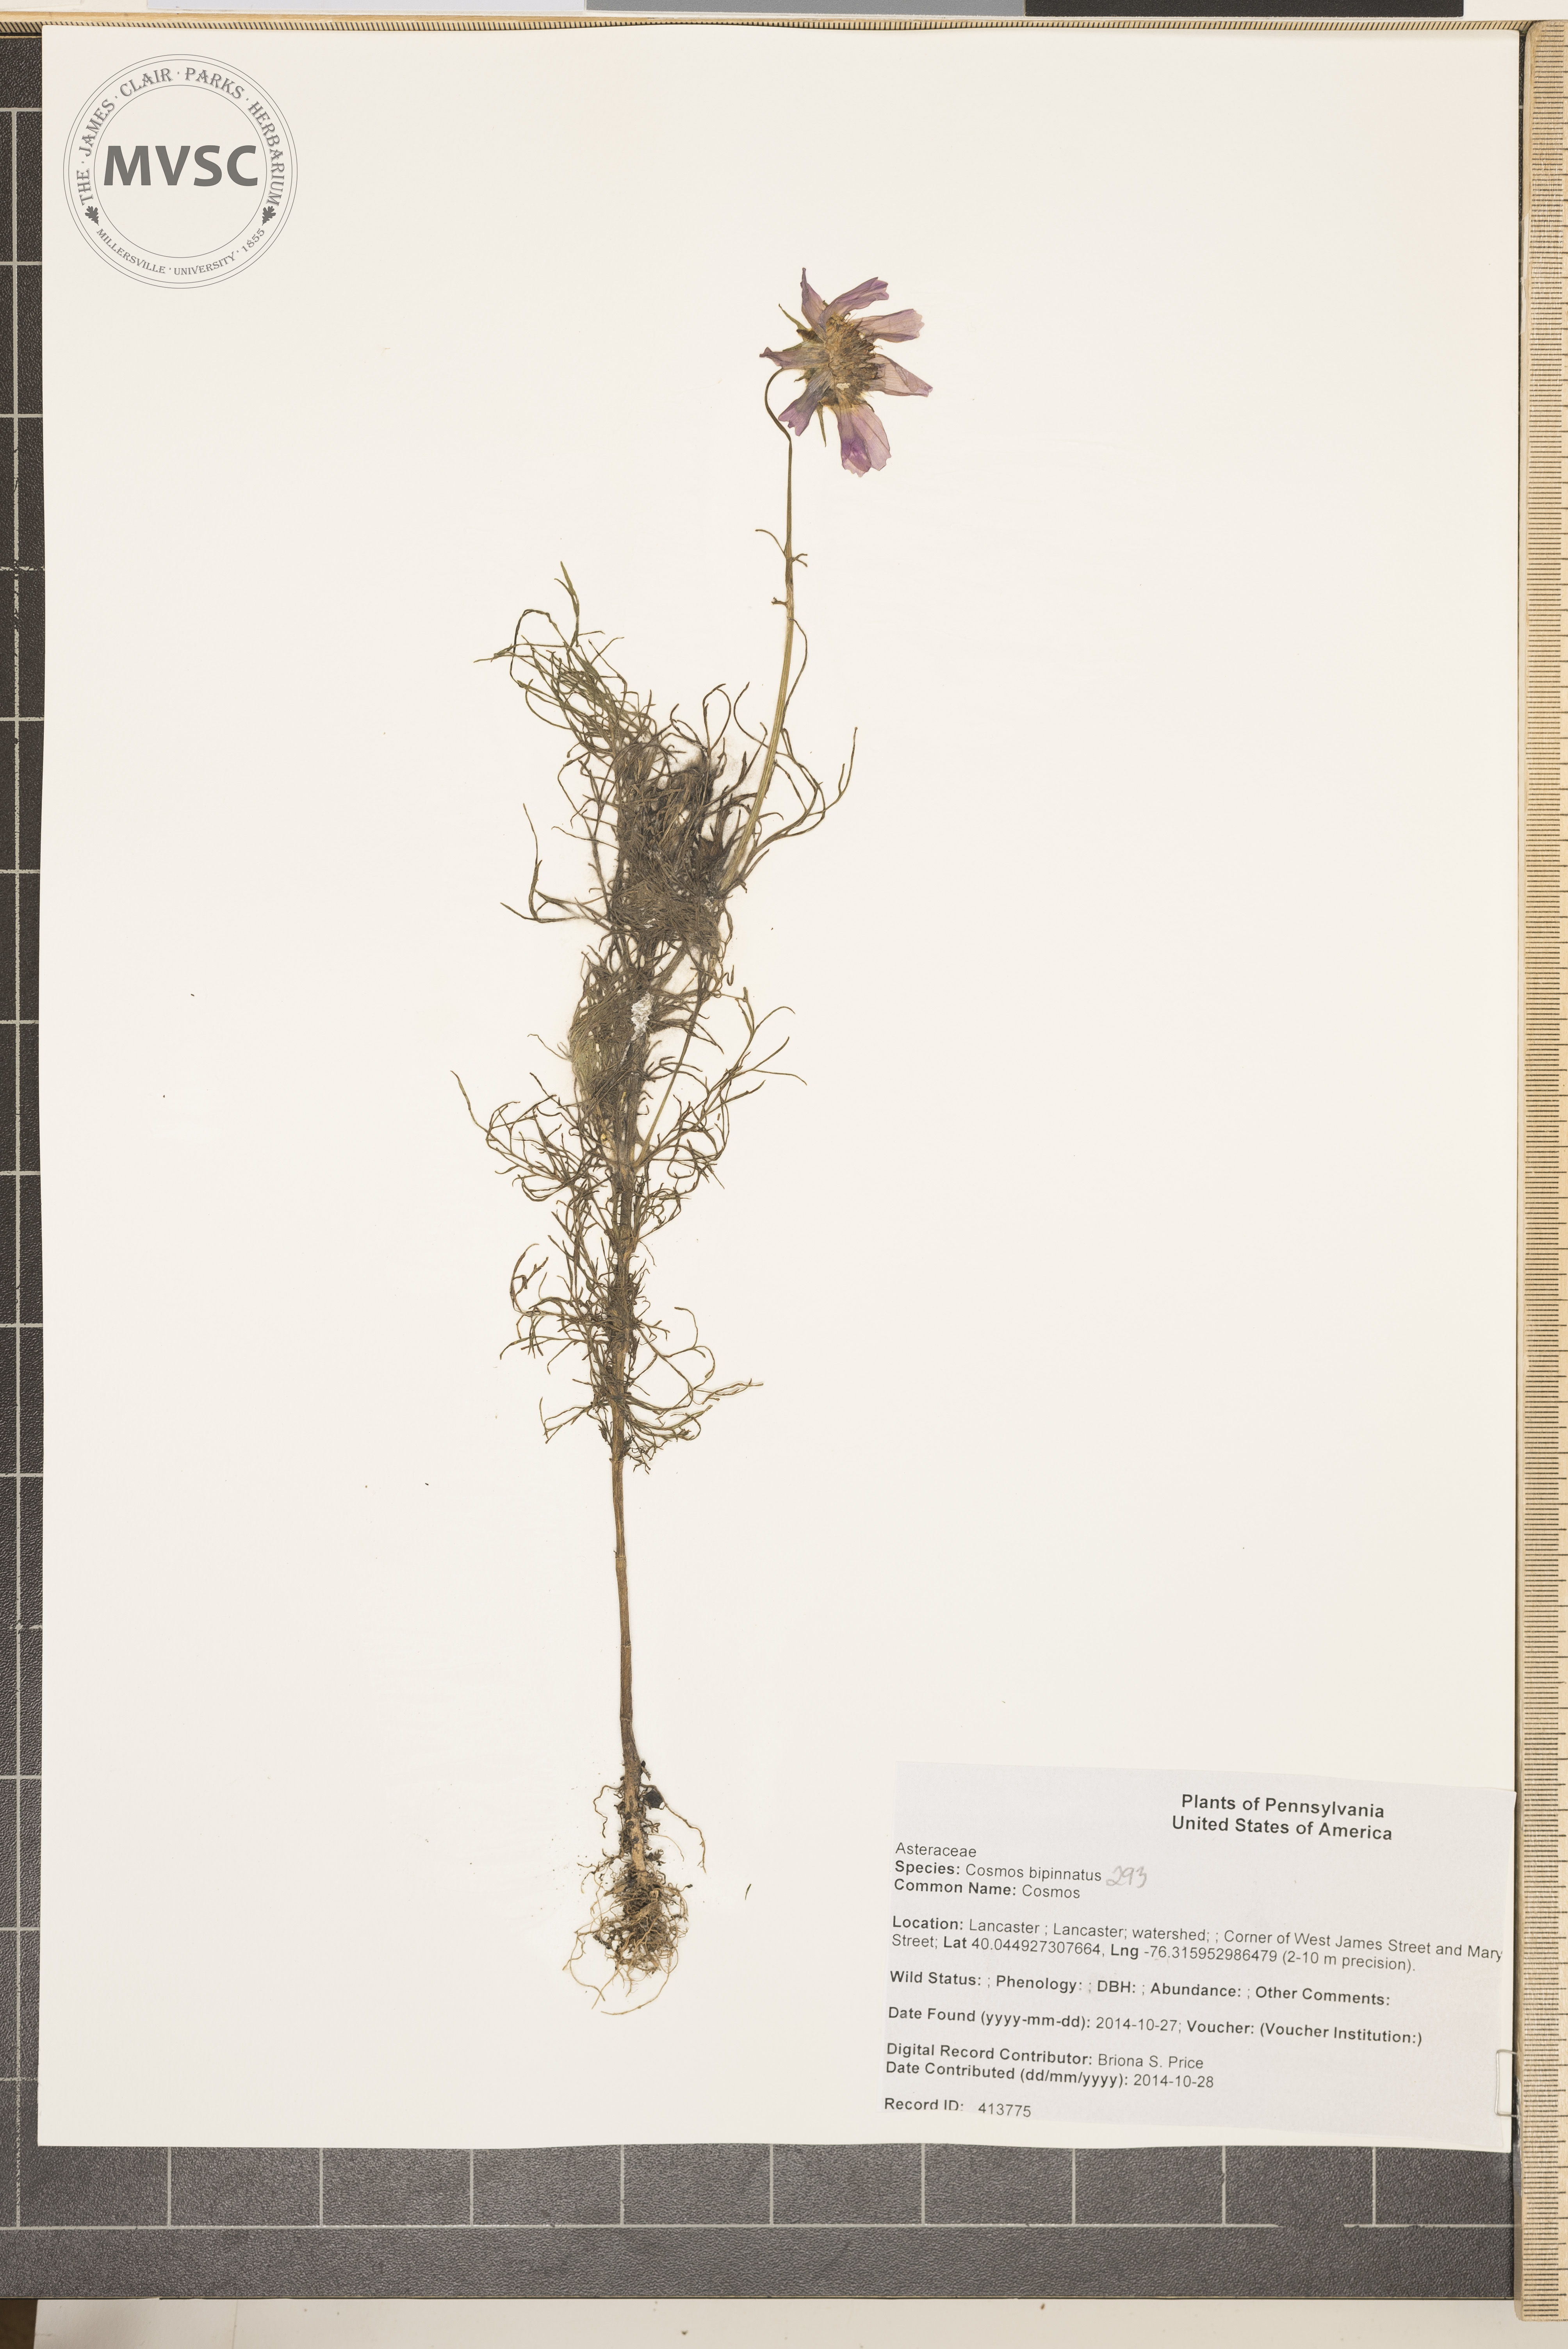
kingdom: Plantae
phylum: Tracheophyta
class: Magnoliopsida
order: Asterales
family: Asteraceae
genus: Cosmos
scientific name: Cosmos bipinnatus
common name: Cosmos
